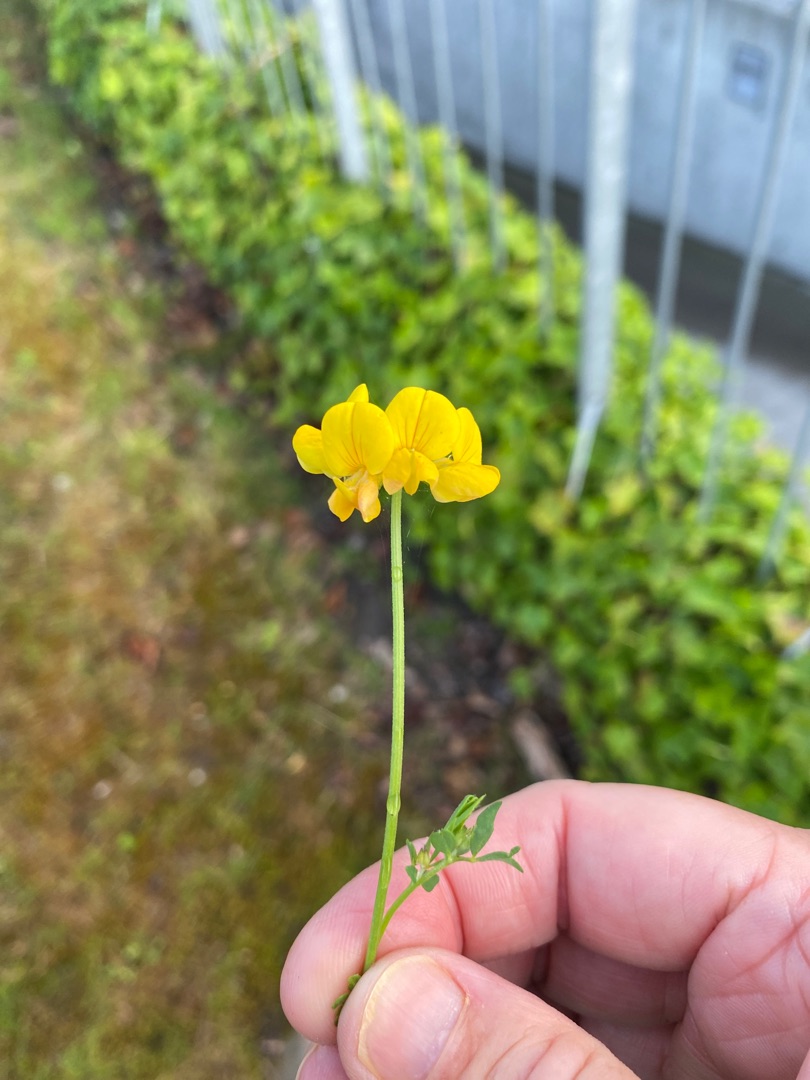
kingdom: Plantae
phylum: Tracheophyta
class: Magnoliopsida
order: Fabales
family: Fabaceae
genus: Lotus
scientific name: Lotus corniculatus
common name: Almindelig kællingetand
